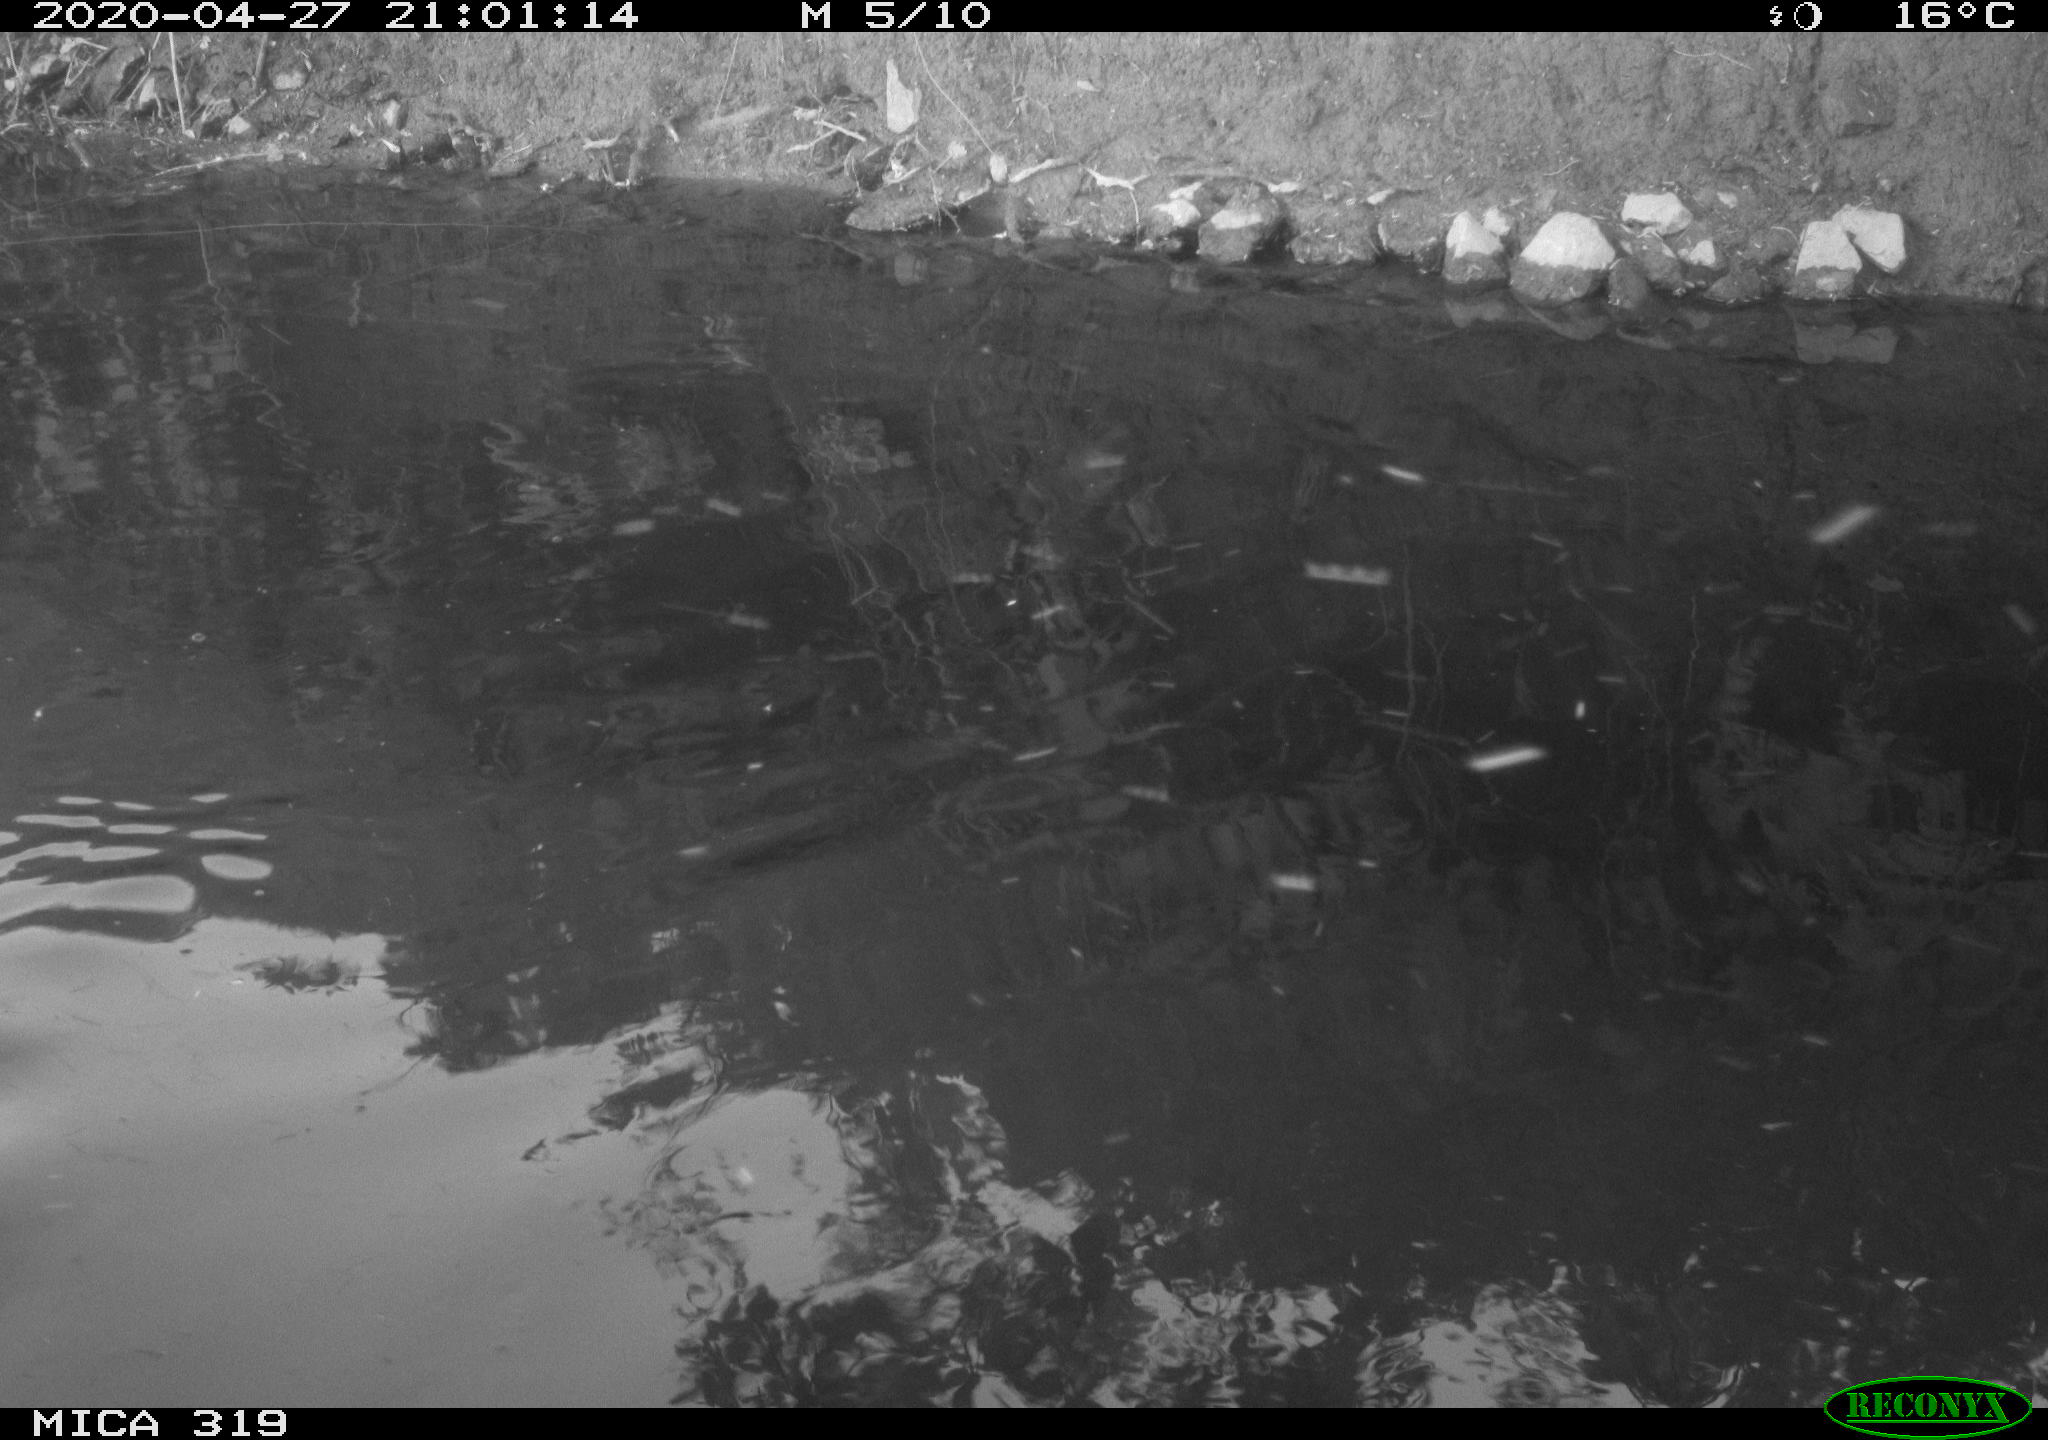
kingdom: Animalia
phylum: Chordata
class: Aves
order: Anseriformes
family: Anatidae
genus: Anas
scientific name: Anas platyrhynchos
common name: Mallard
